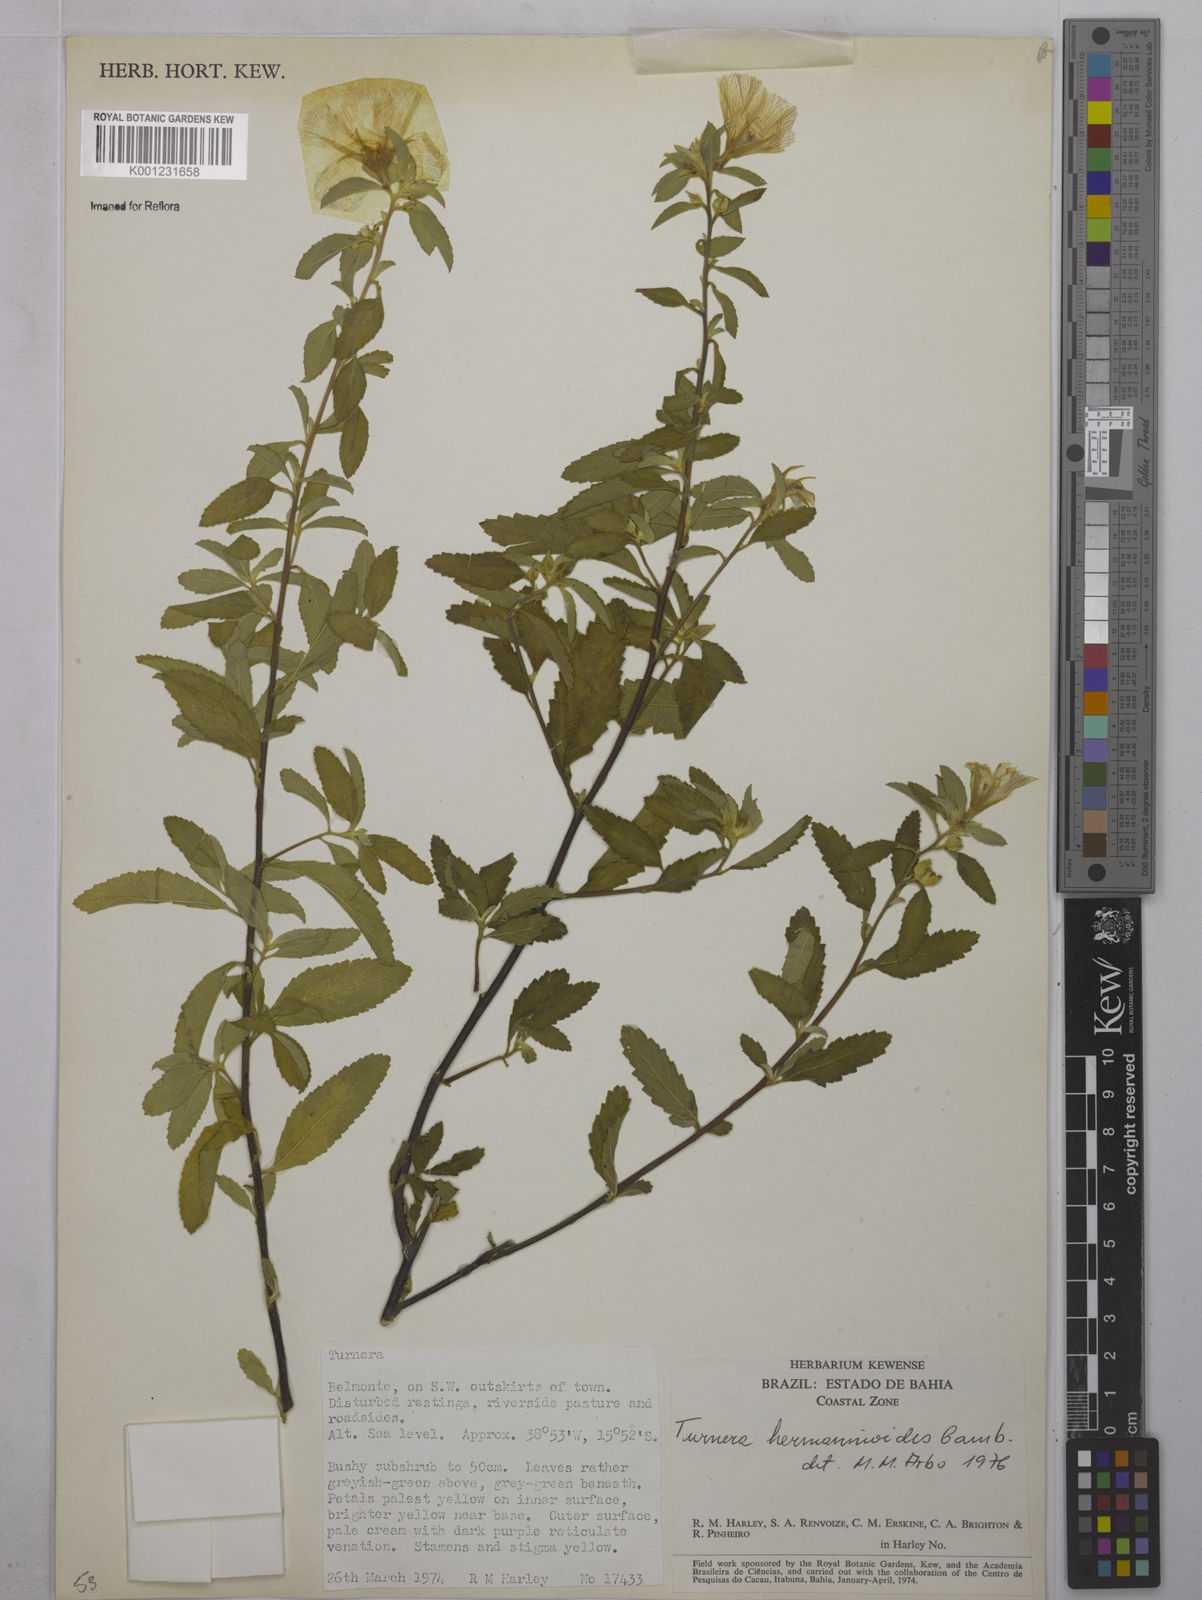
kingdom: Plantae
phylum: Tracheophyta
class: Magnoliopsida
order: Malpighiales
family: Turneraceae
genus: Turnera
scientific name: Turnera hermannioides
